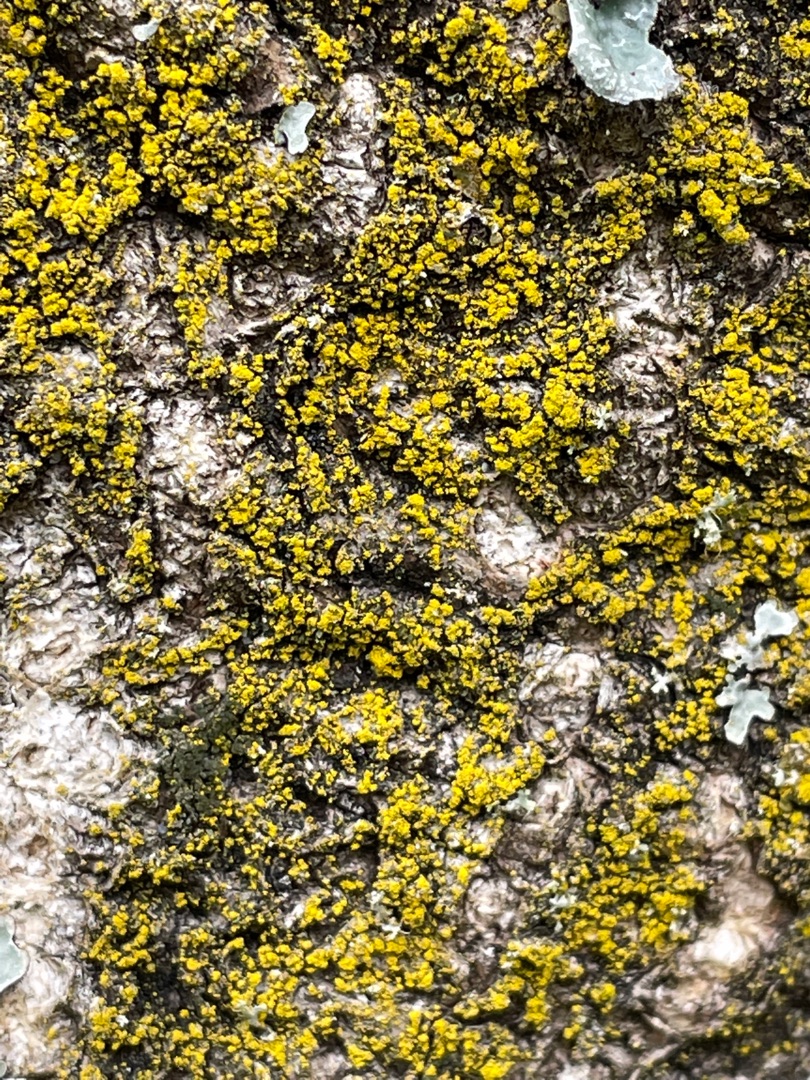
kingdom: Fungi
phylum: Ascomycota
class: Candelariomycetes
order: Candelariales
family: Candelariaceae
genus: Candelariella
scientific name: Candelariella vitellina
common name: Almindelig æggeblommelav
